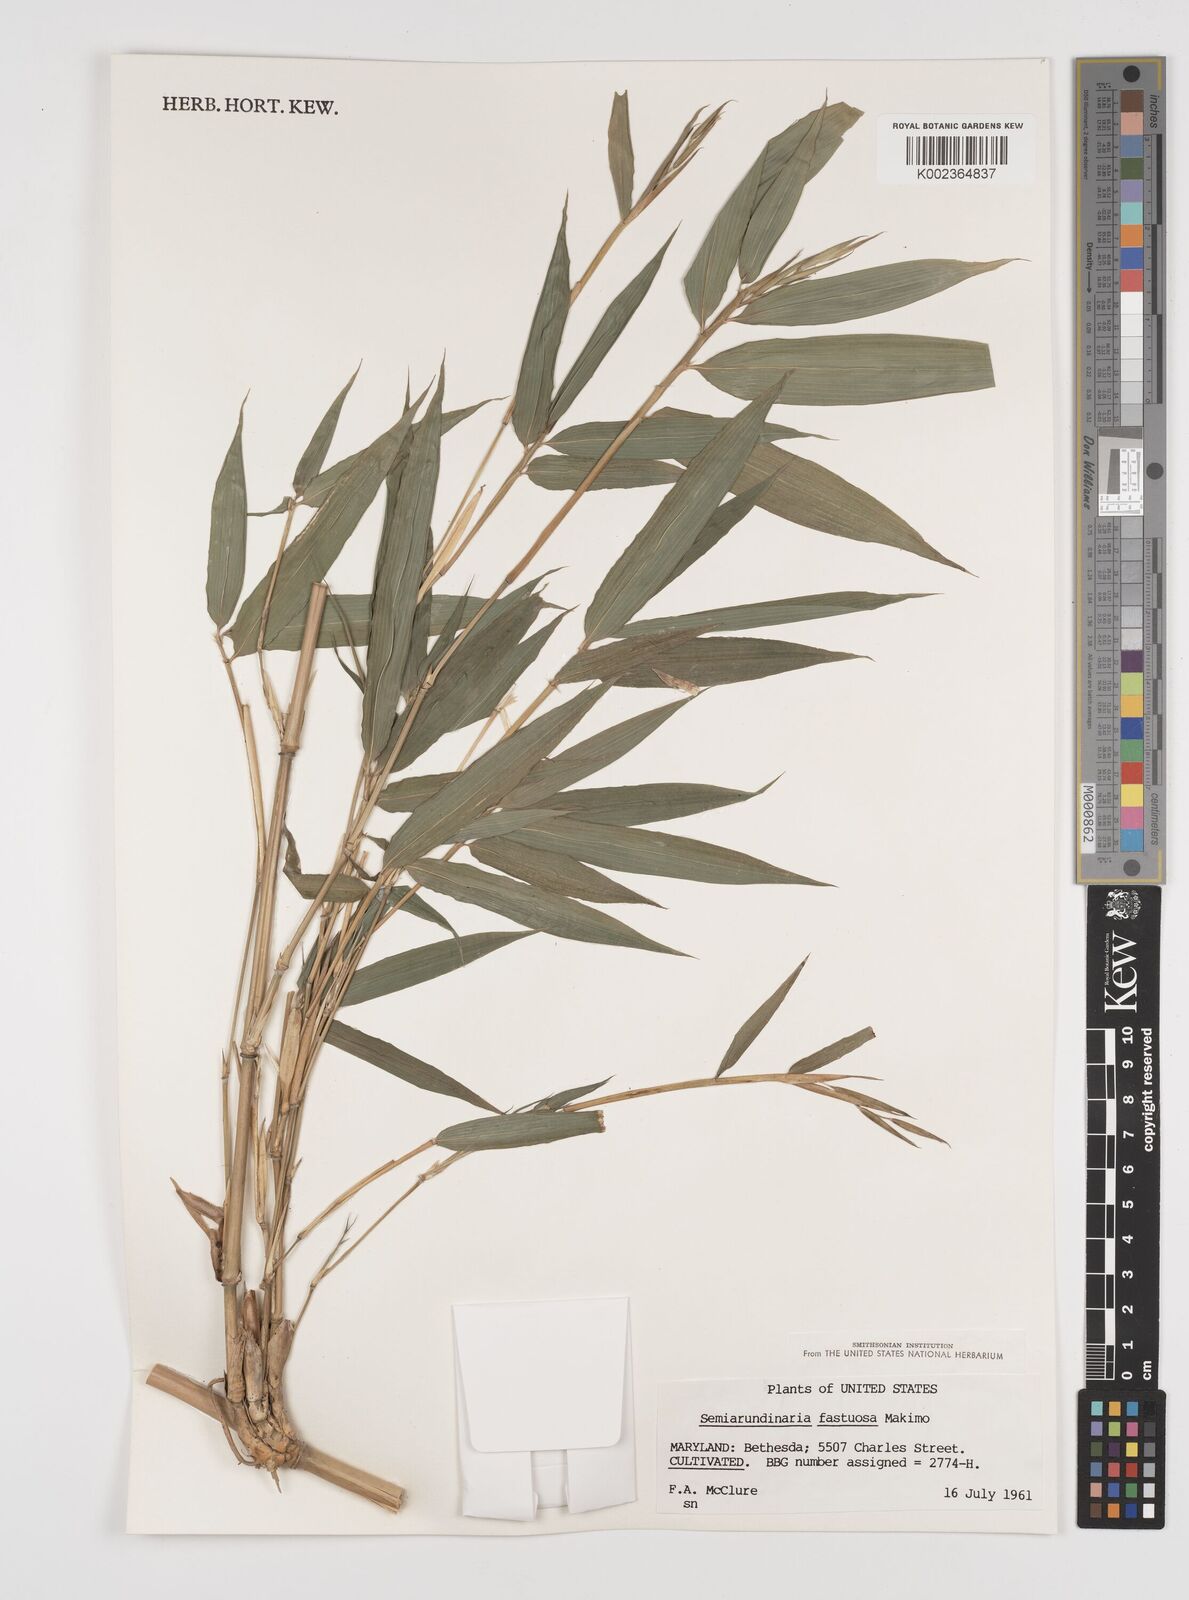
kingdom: Plantae
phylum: Tracheophyta
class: Liliopsida
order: Poales
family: Poaceae
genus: Semiarundinaria
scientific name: Semiarundinaria fastuosa
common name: Narihira bamboo
